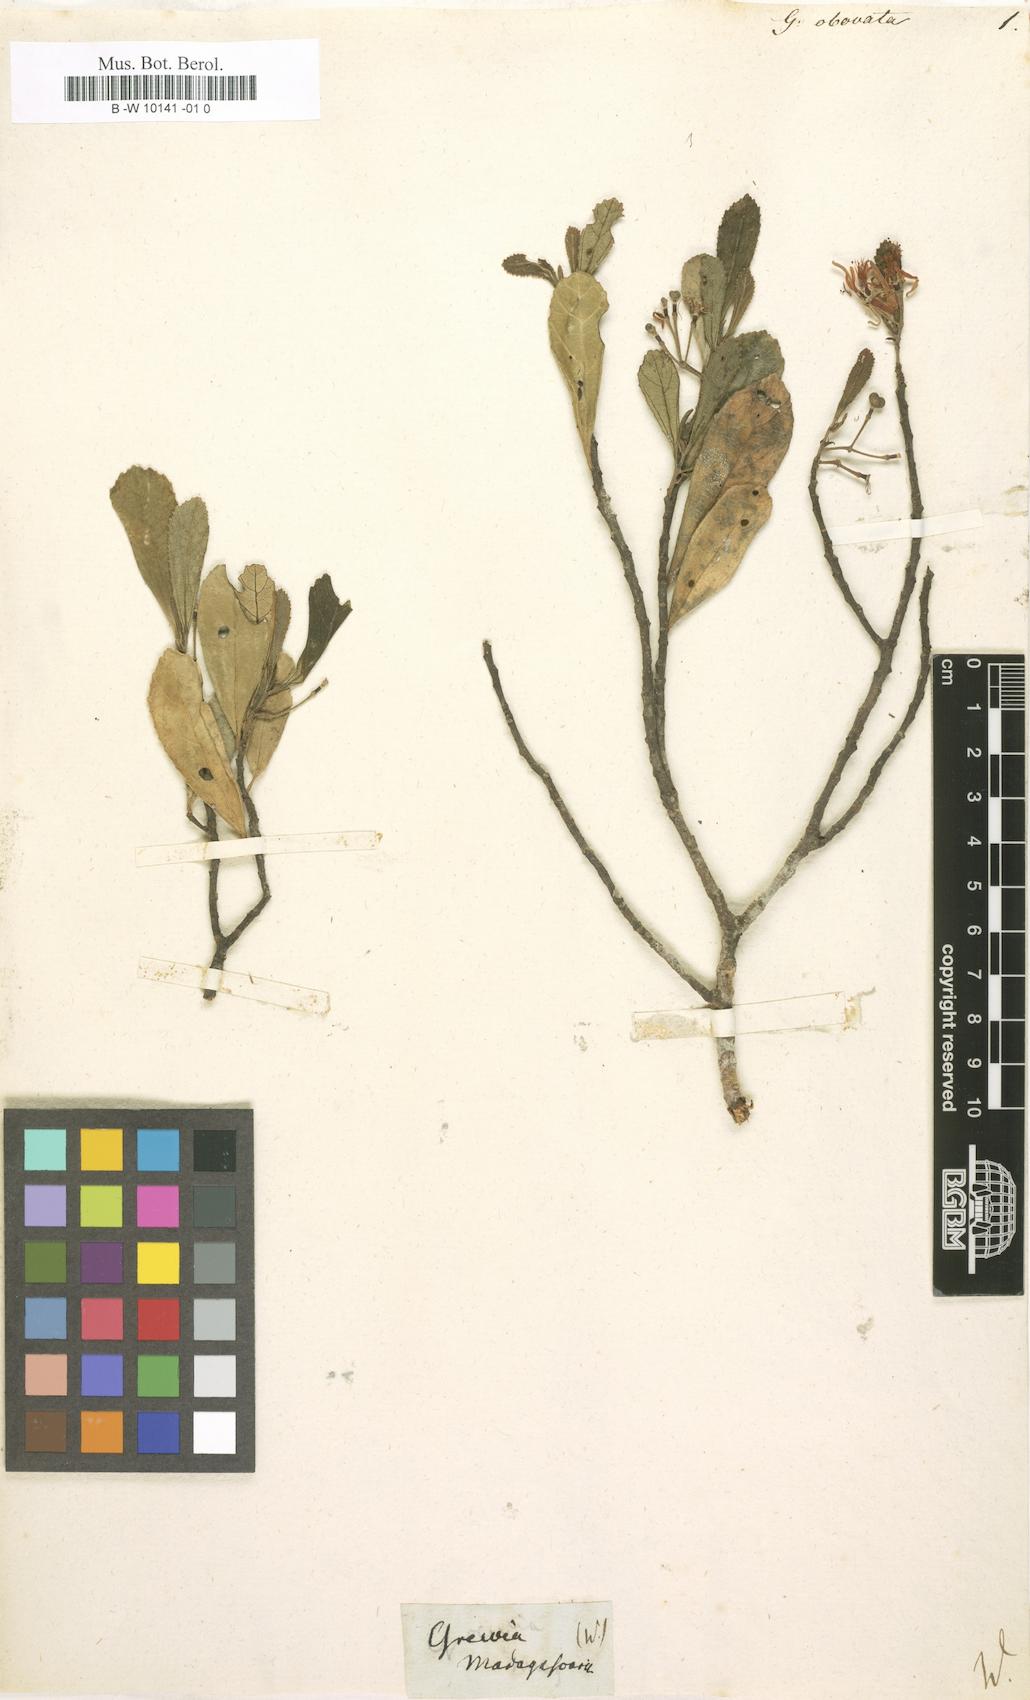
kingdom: Plantae
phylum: Tracheophyta
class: Magnoliopsida
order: Malvales
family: Malvaceae
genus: Grewia
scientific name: Grewia obovata
